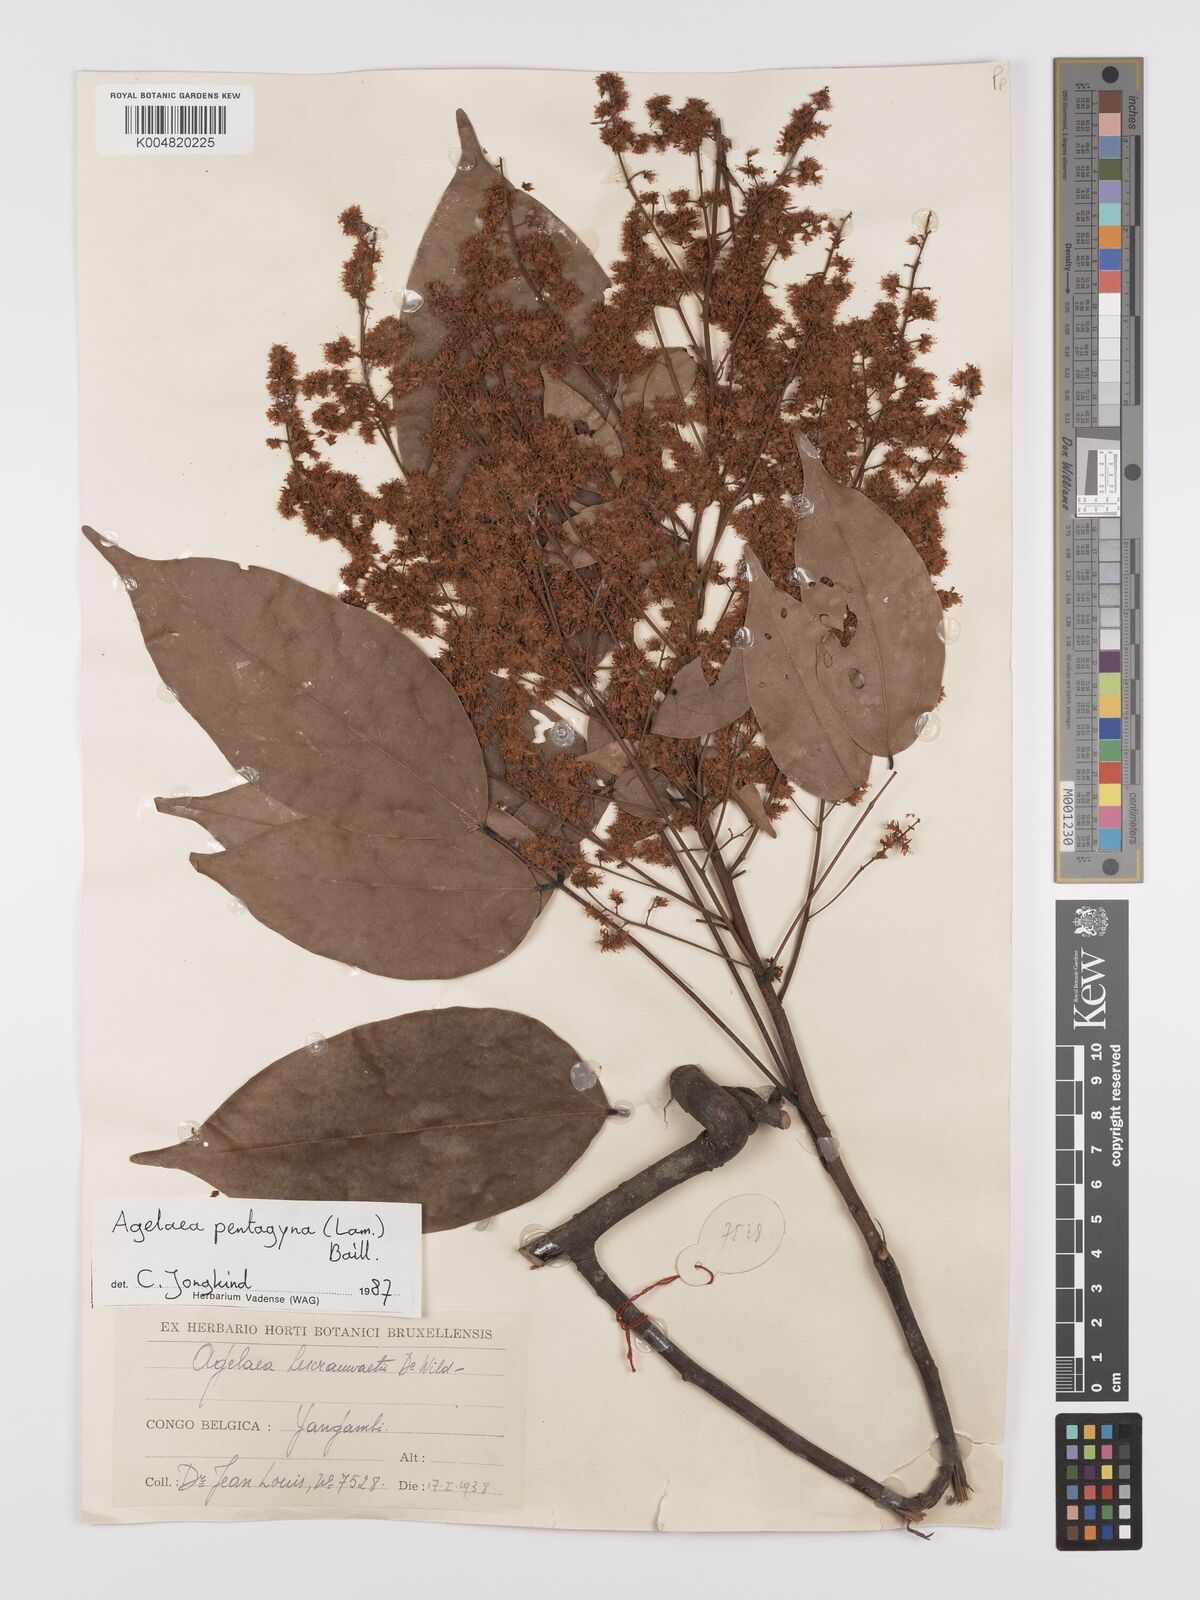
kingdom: Plantae
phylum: Tracheophyta
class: Magnoliopsida
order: Oxalidales
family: Connaraceae
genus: Agelaea
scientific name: Agelaea pentagyna
